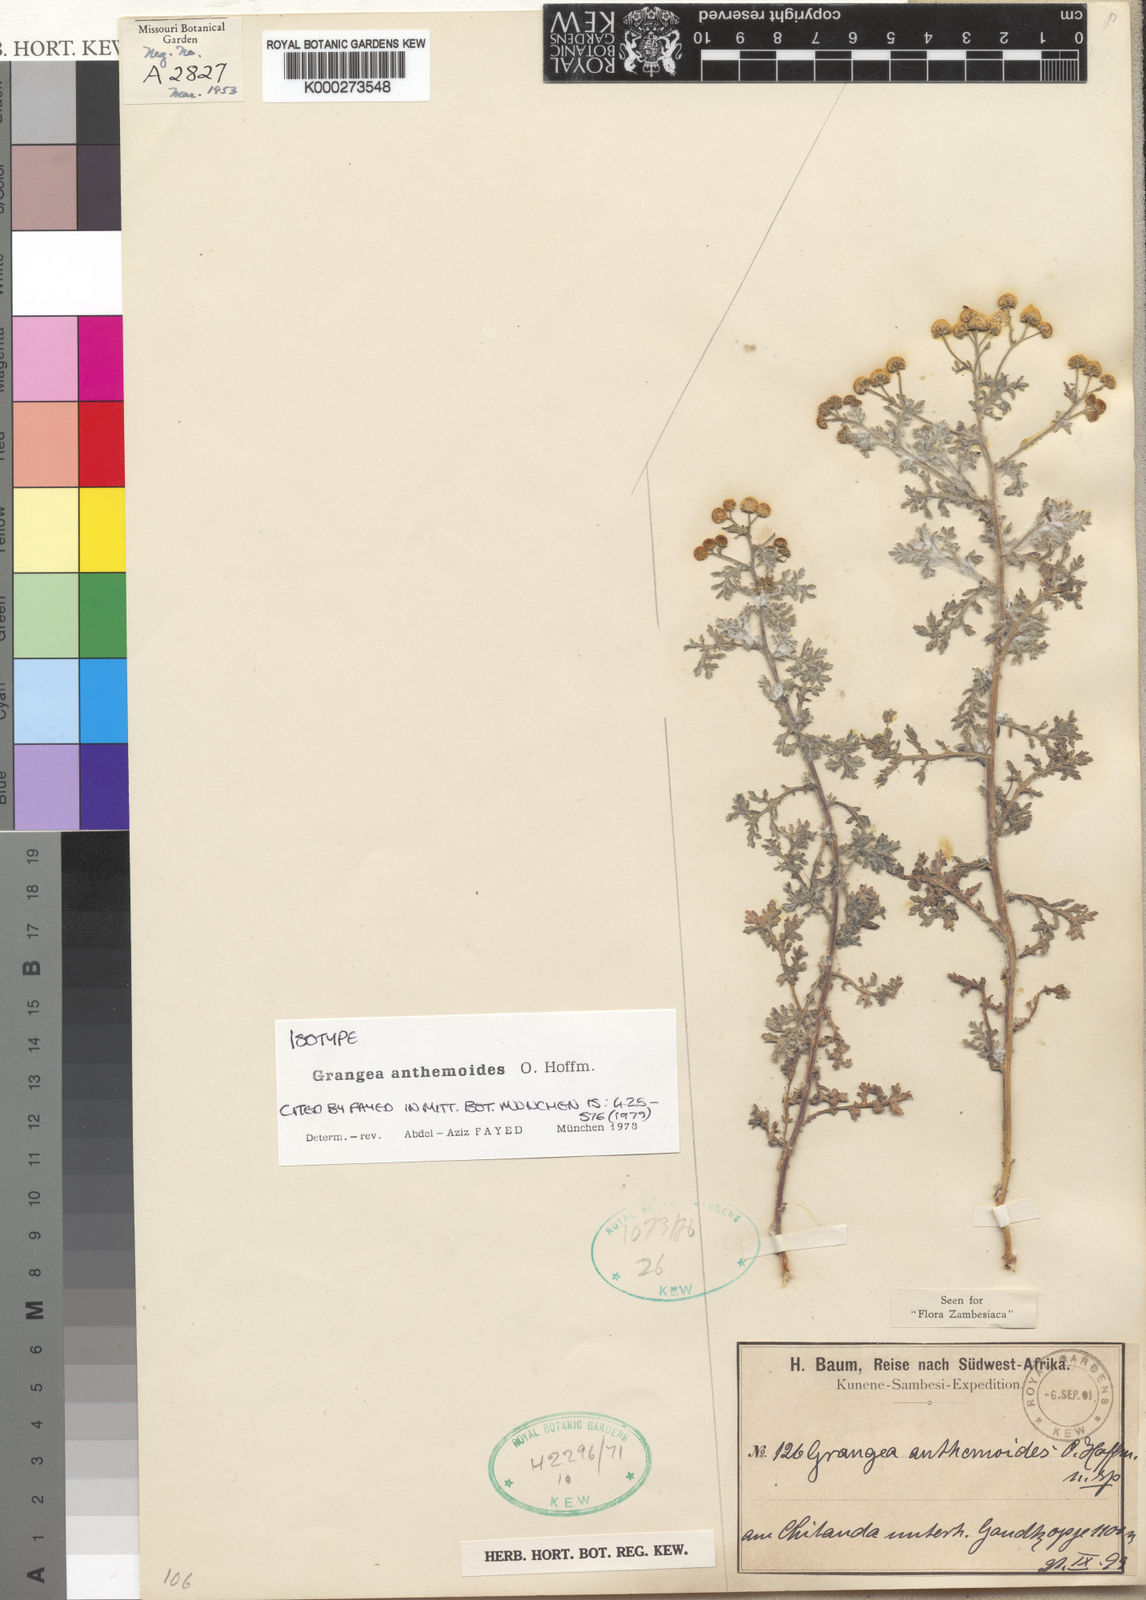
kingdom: Plantae
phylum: Tracheophyta
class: Magnoliopsida
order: Asterales
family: Asteraceae
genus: Grangea
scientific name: Grangea anthemoides
